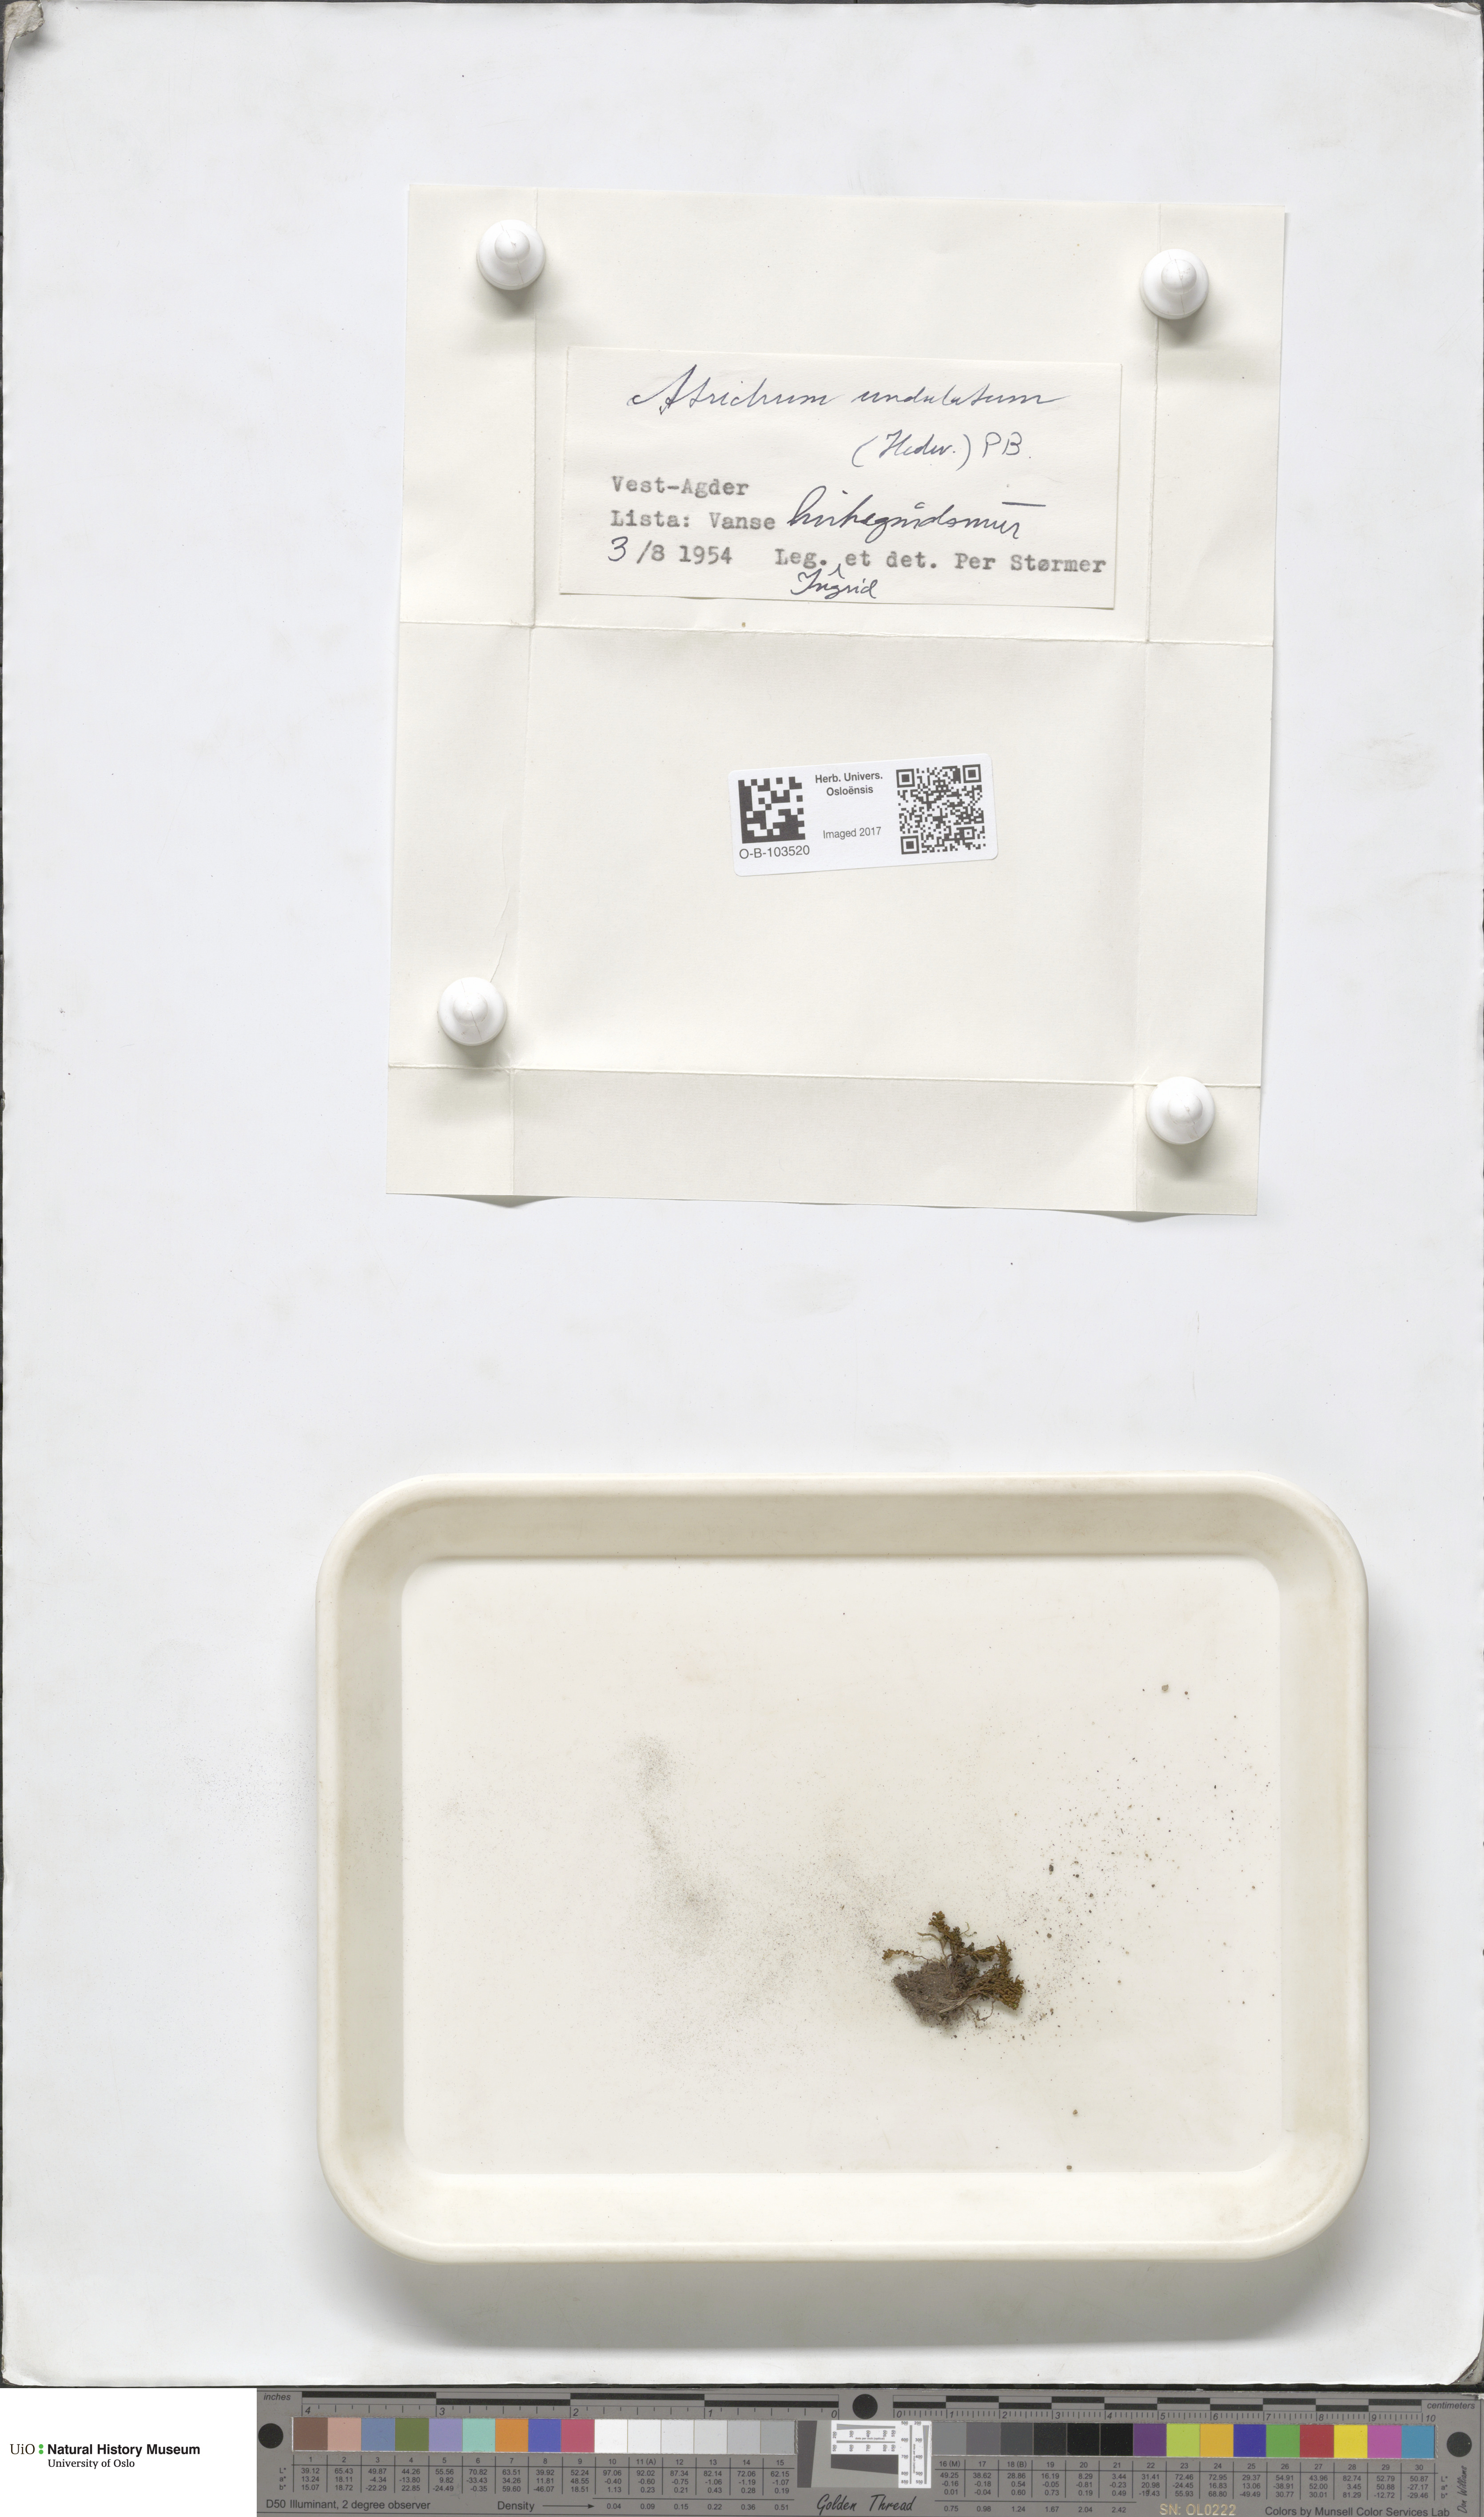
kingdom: Plantae
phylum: Bryophyta
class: Polytrichopsida
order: Polytrichales
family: Polytrichaceae
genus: Atrichum
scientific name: Atrichum undulatum
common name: Common smoothcap
